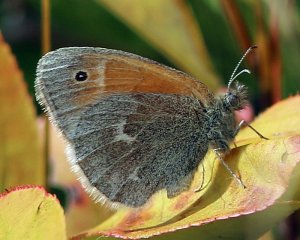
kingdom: Animalia
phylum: Arthropoda
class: Insecta
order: Lepidoptera
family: Nymphalidae
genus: Coenonympha
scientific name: Coenonympha tullia
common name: Large Heath
